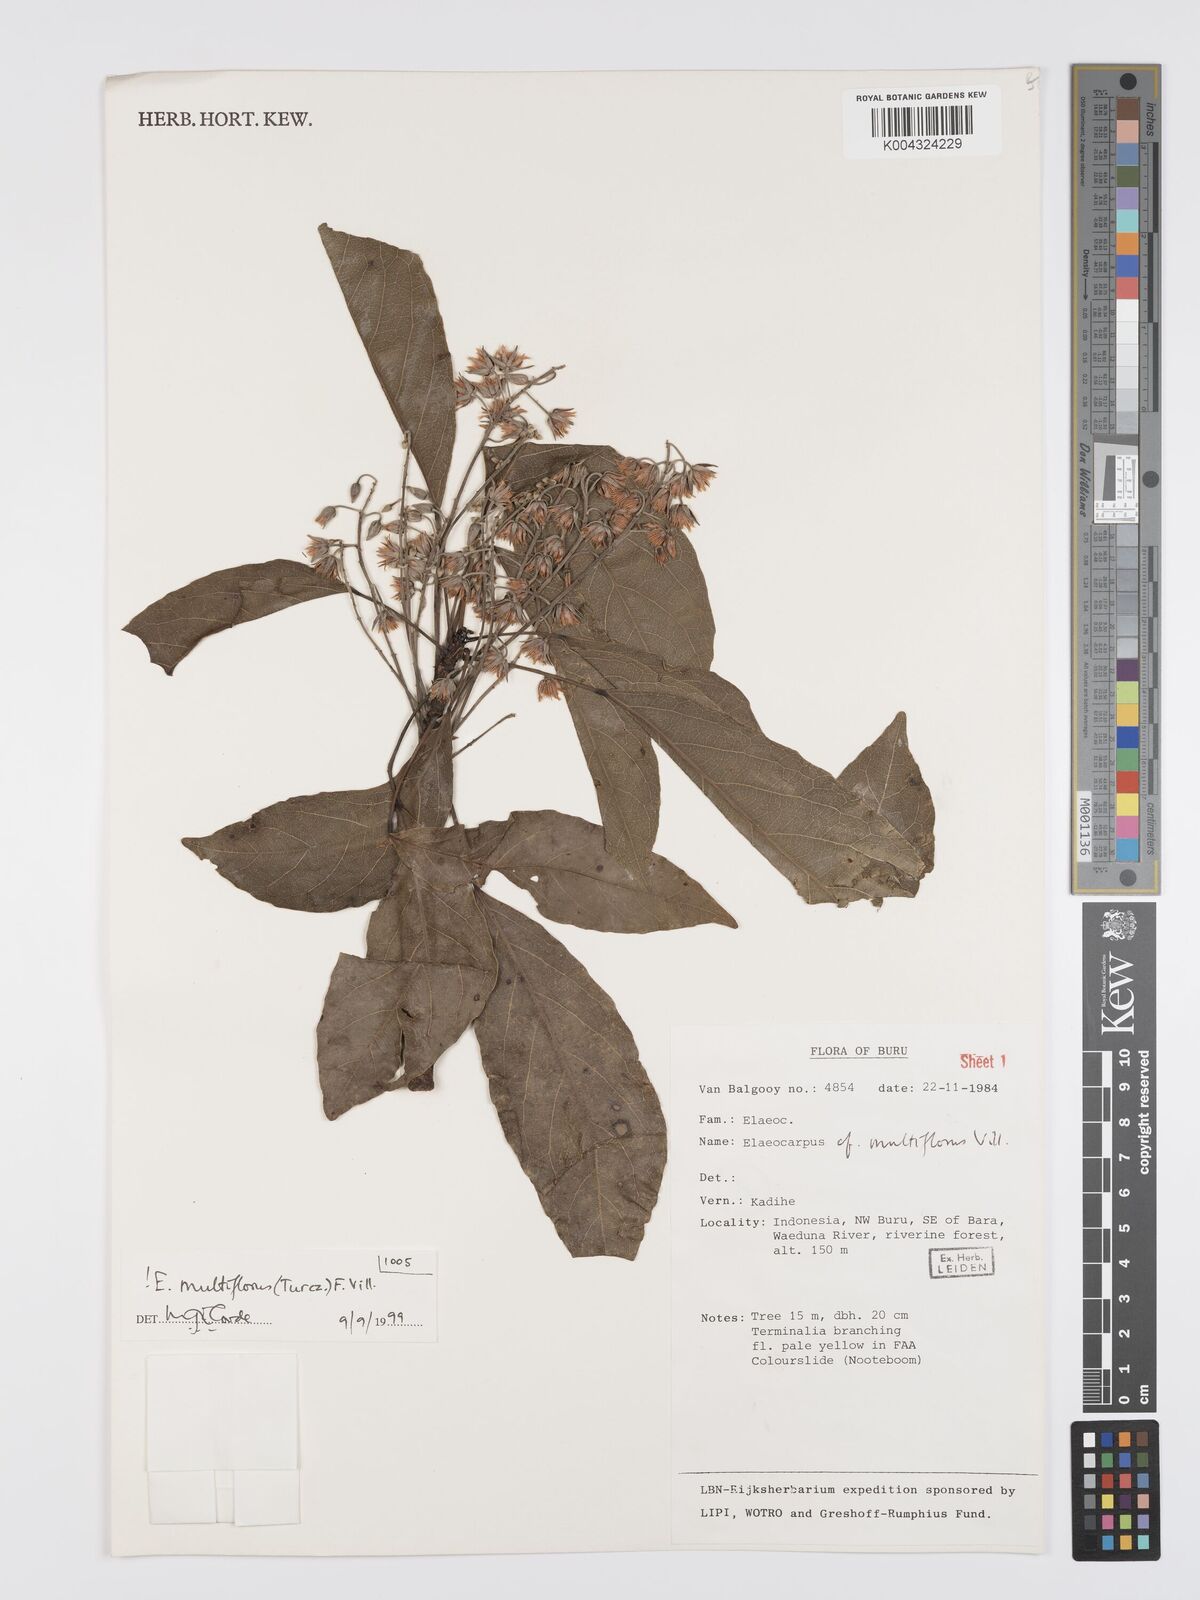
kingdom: Plantae
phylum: Tracheophyta
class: Magnoliopsida
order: Oxalidales
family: Elaeocarpaceae
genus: Elaeocarpus
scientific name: Elaeocarpus multiflorus
